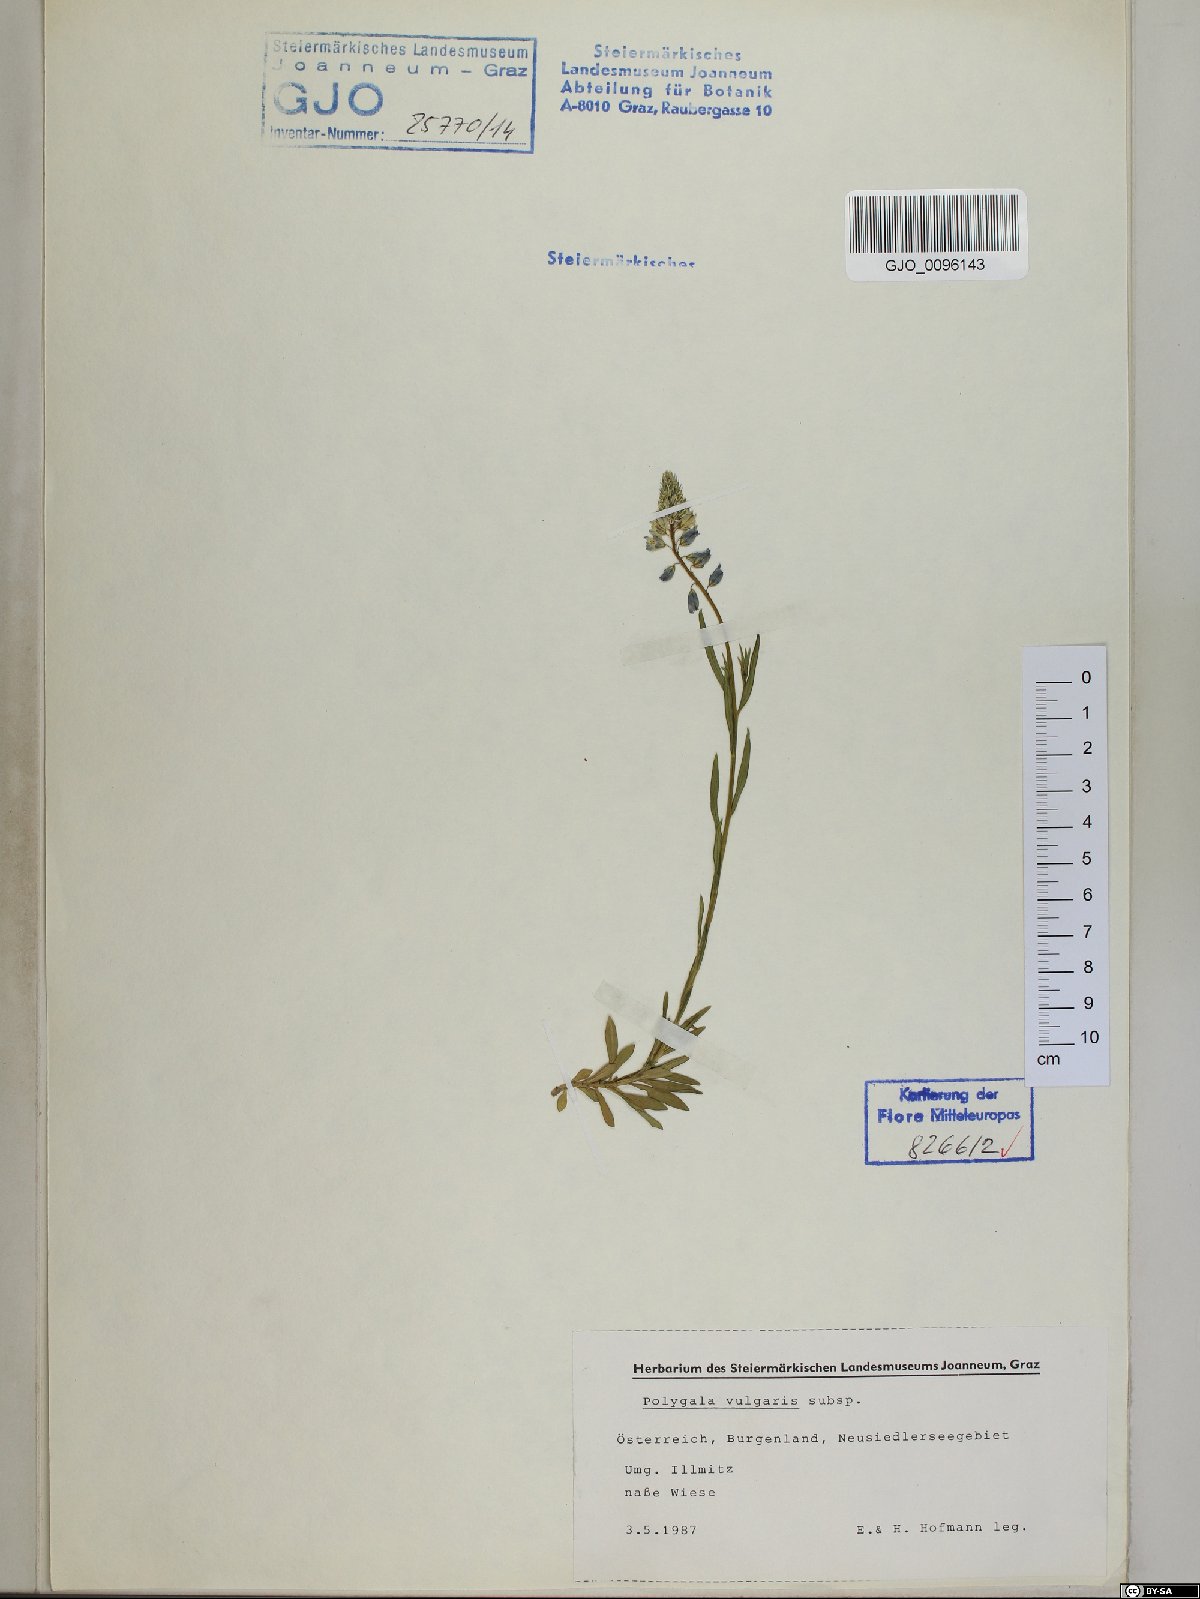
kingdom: Plantae
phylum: Tracheophyta
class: Magnoliopsida
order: Fabales
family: Polygalaceae
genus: Polygala
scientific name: Polygala vulgaris
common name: Common milkwort
